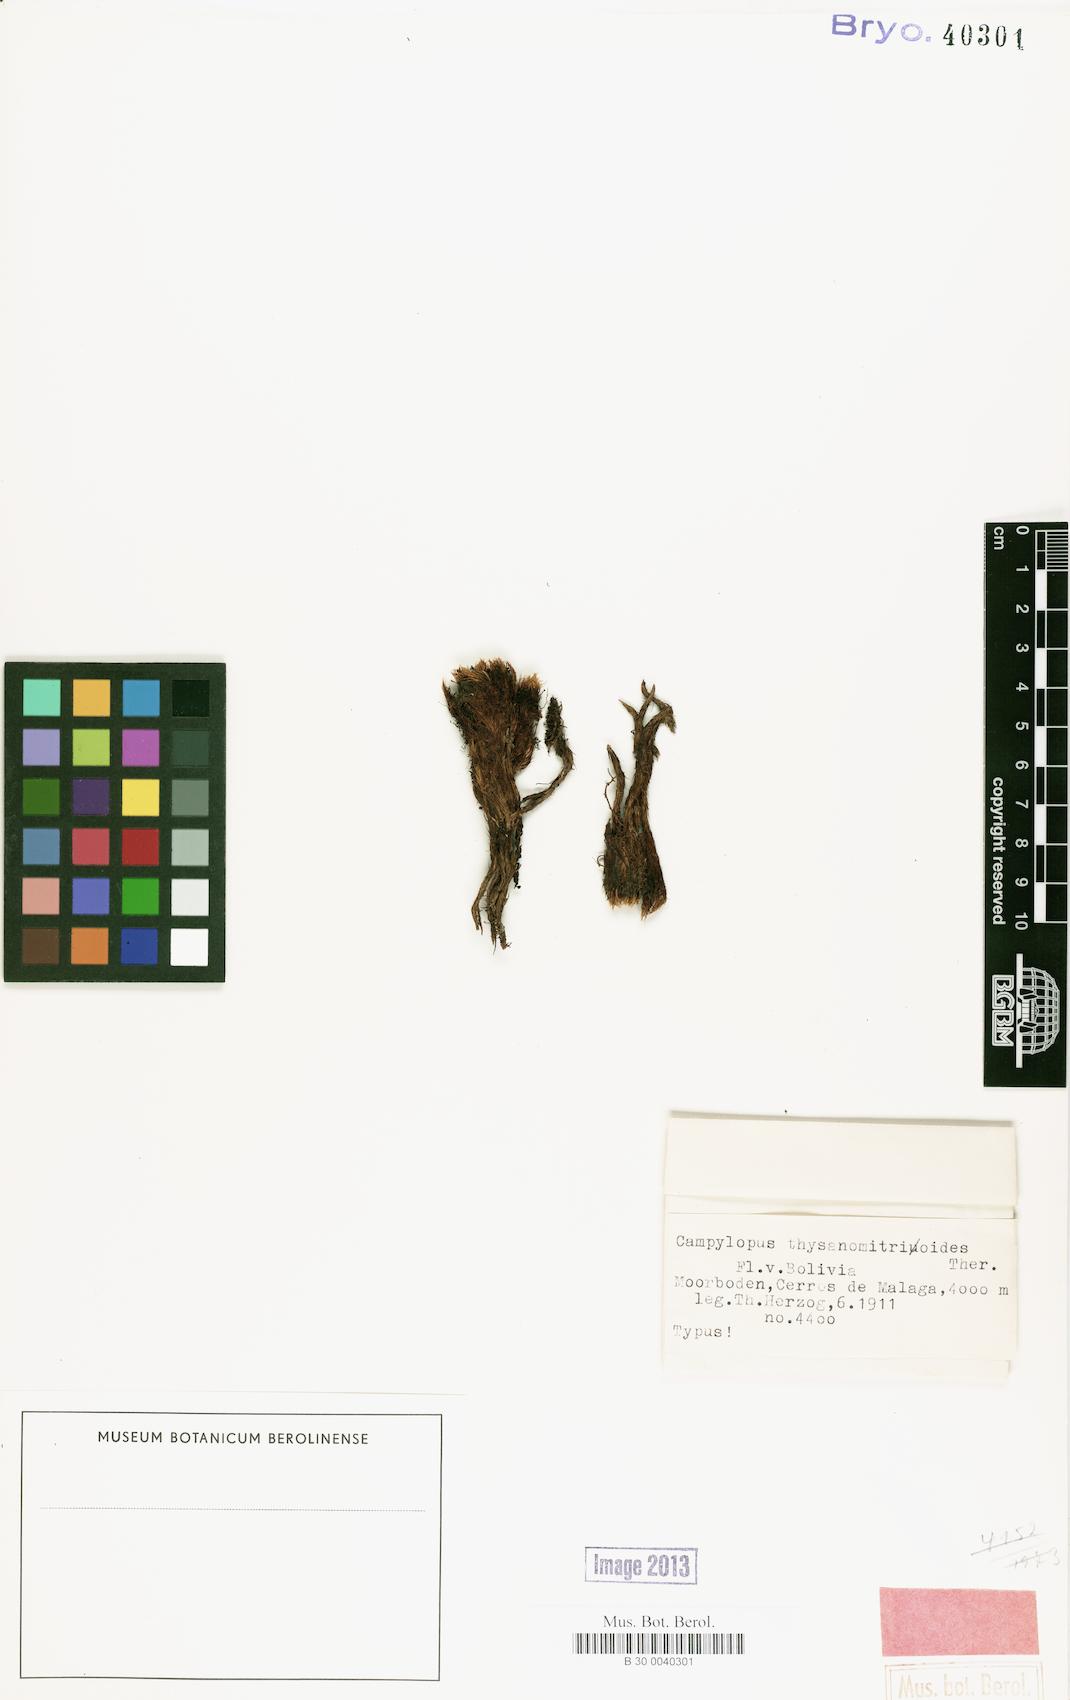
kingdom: Plantae
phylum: Bryophyta
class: Bryopsida
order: Dicranales
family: Leucobryaceae
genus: Campylopus
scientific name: Campylopus edithae
